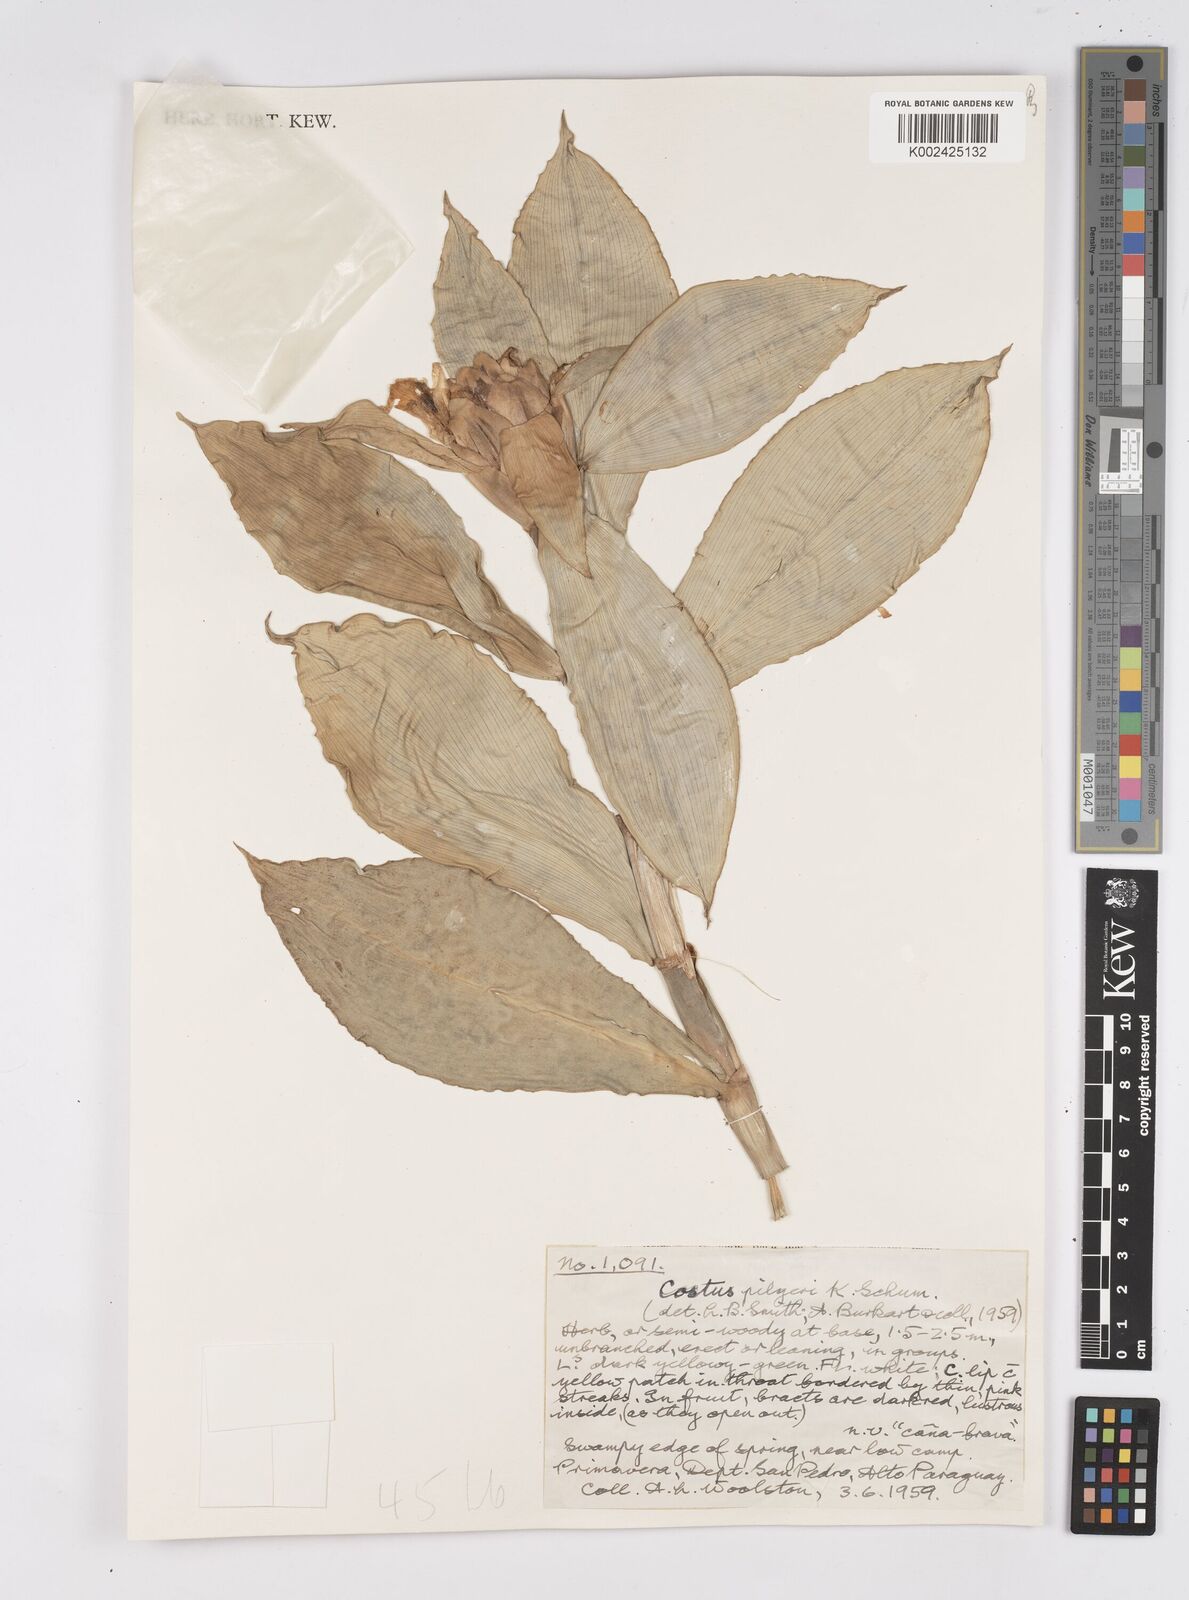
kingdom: Plantae
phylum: Tracheophyta
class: Liliopsida
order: Zingiberales
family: Costaceae
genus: Costus
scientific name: Costus arabicus
